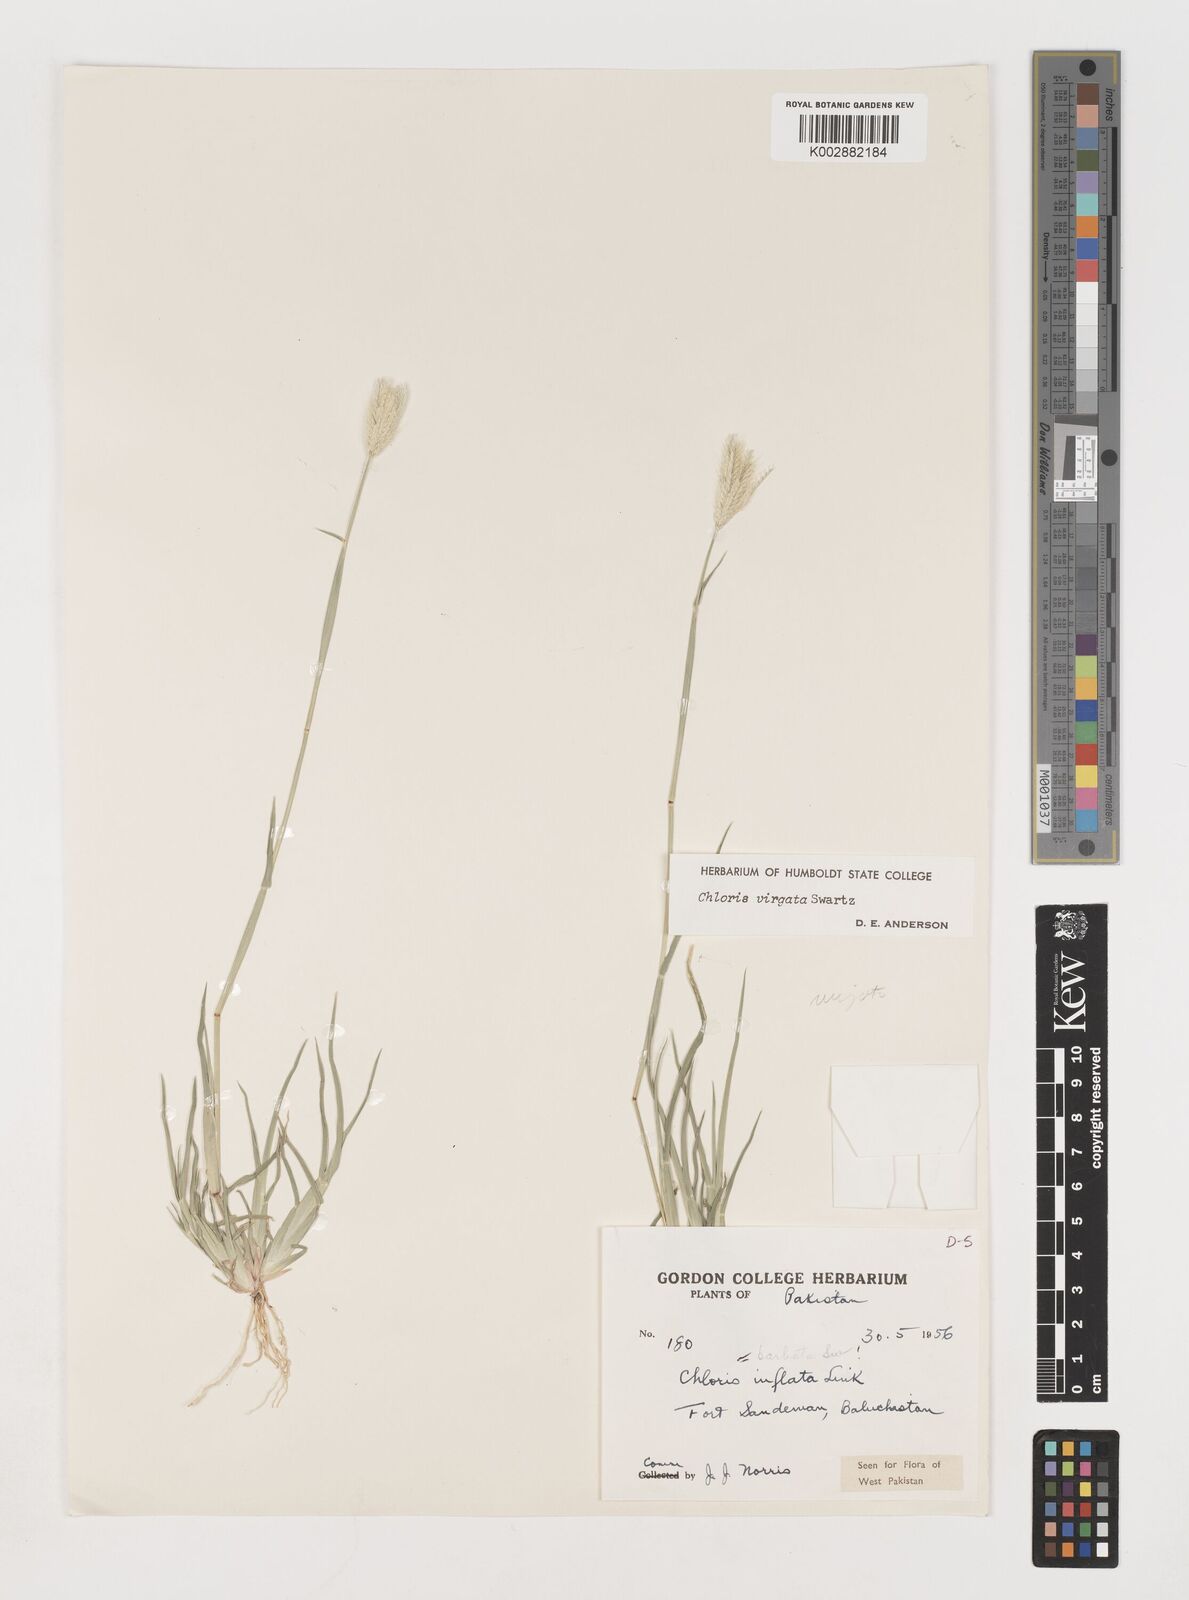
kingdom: Plantae
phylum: Tracheophyta
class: Liliopsida
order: Poales
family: Poaceae
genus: Chloris
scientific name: Chloris virgata
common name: Feathery rhodes-grass
